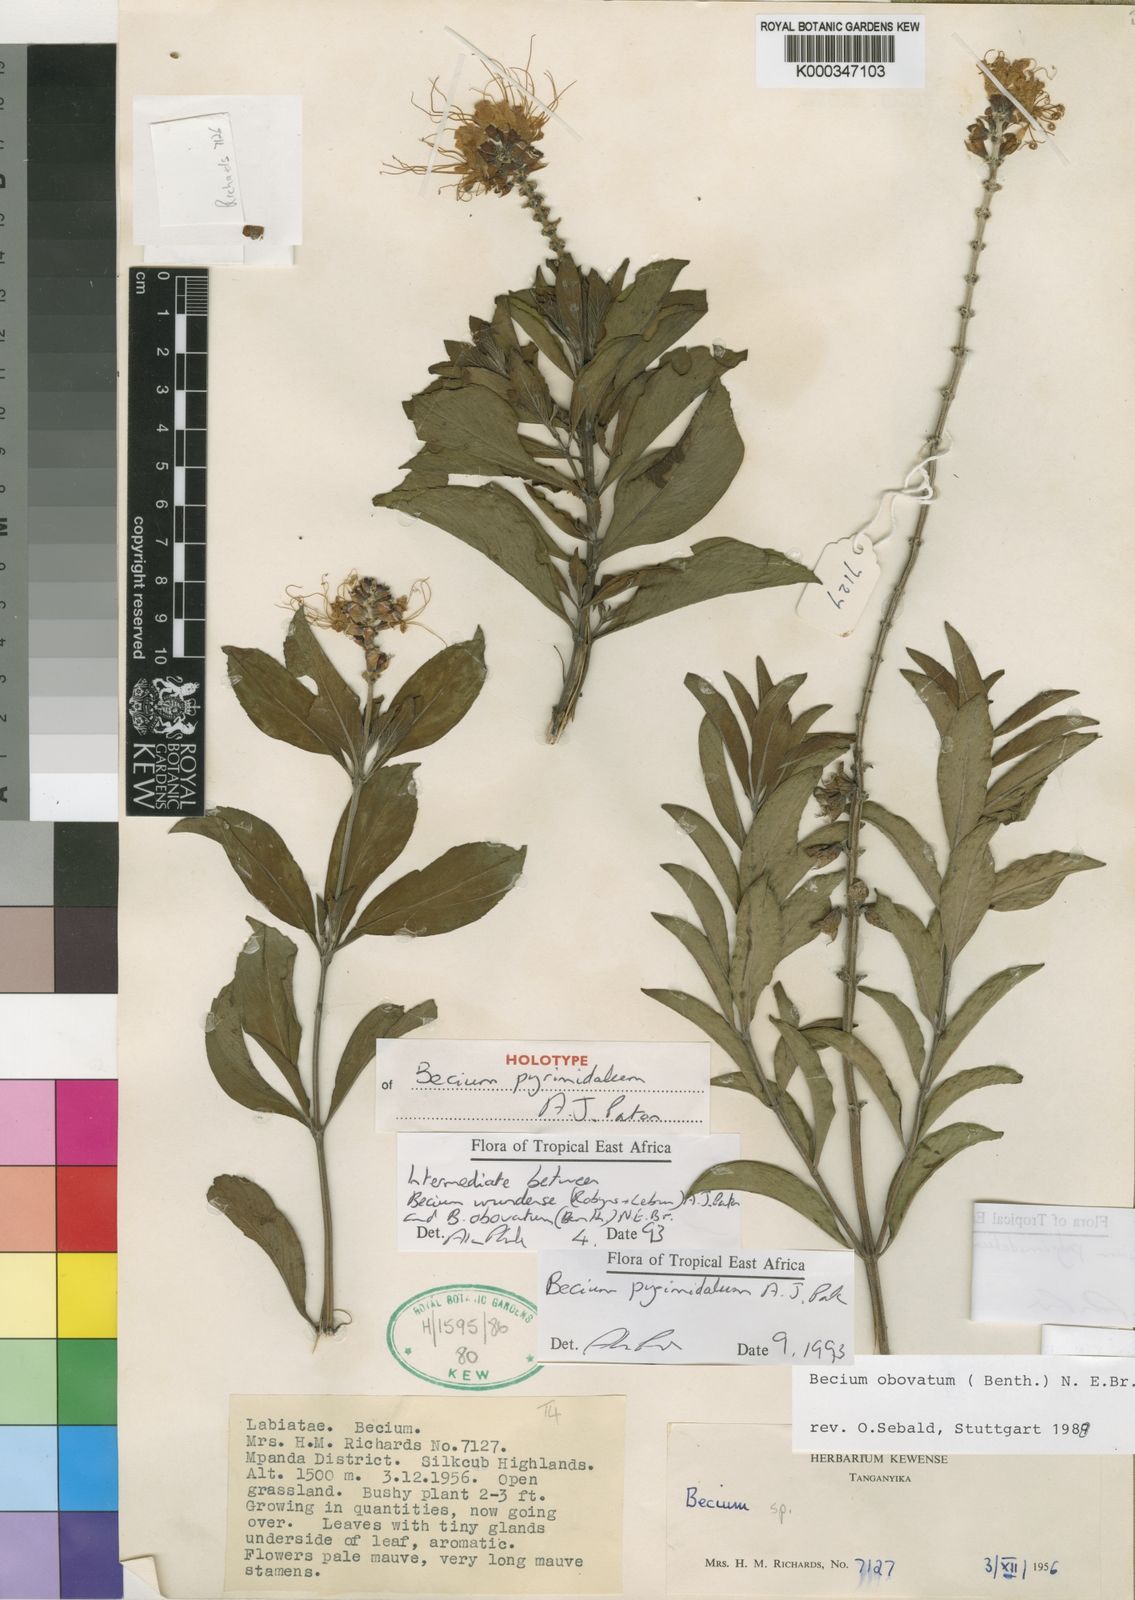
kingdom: Plantae
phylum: Tracheophyta
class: Magnoliopsida
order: Lamiales
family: Lamiaceae
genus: Ocimum
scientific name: Ocimum pyramidatum
